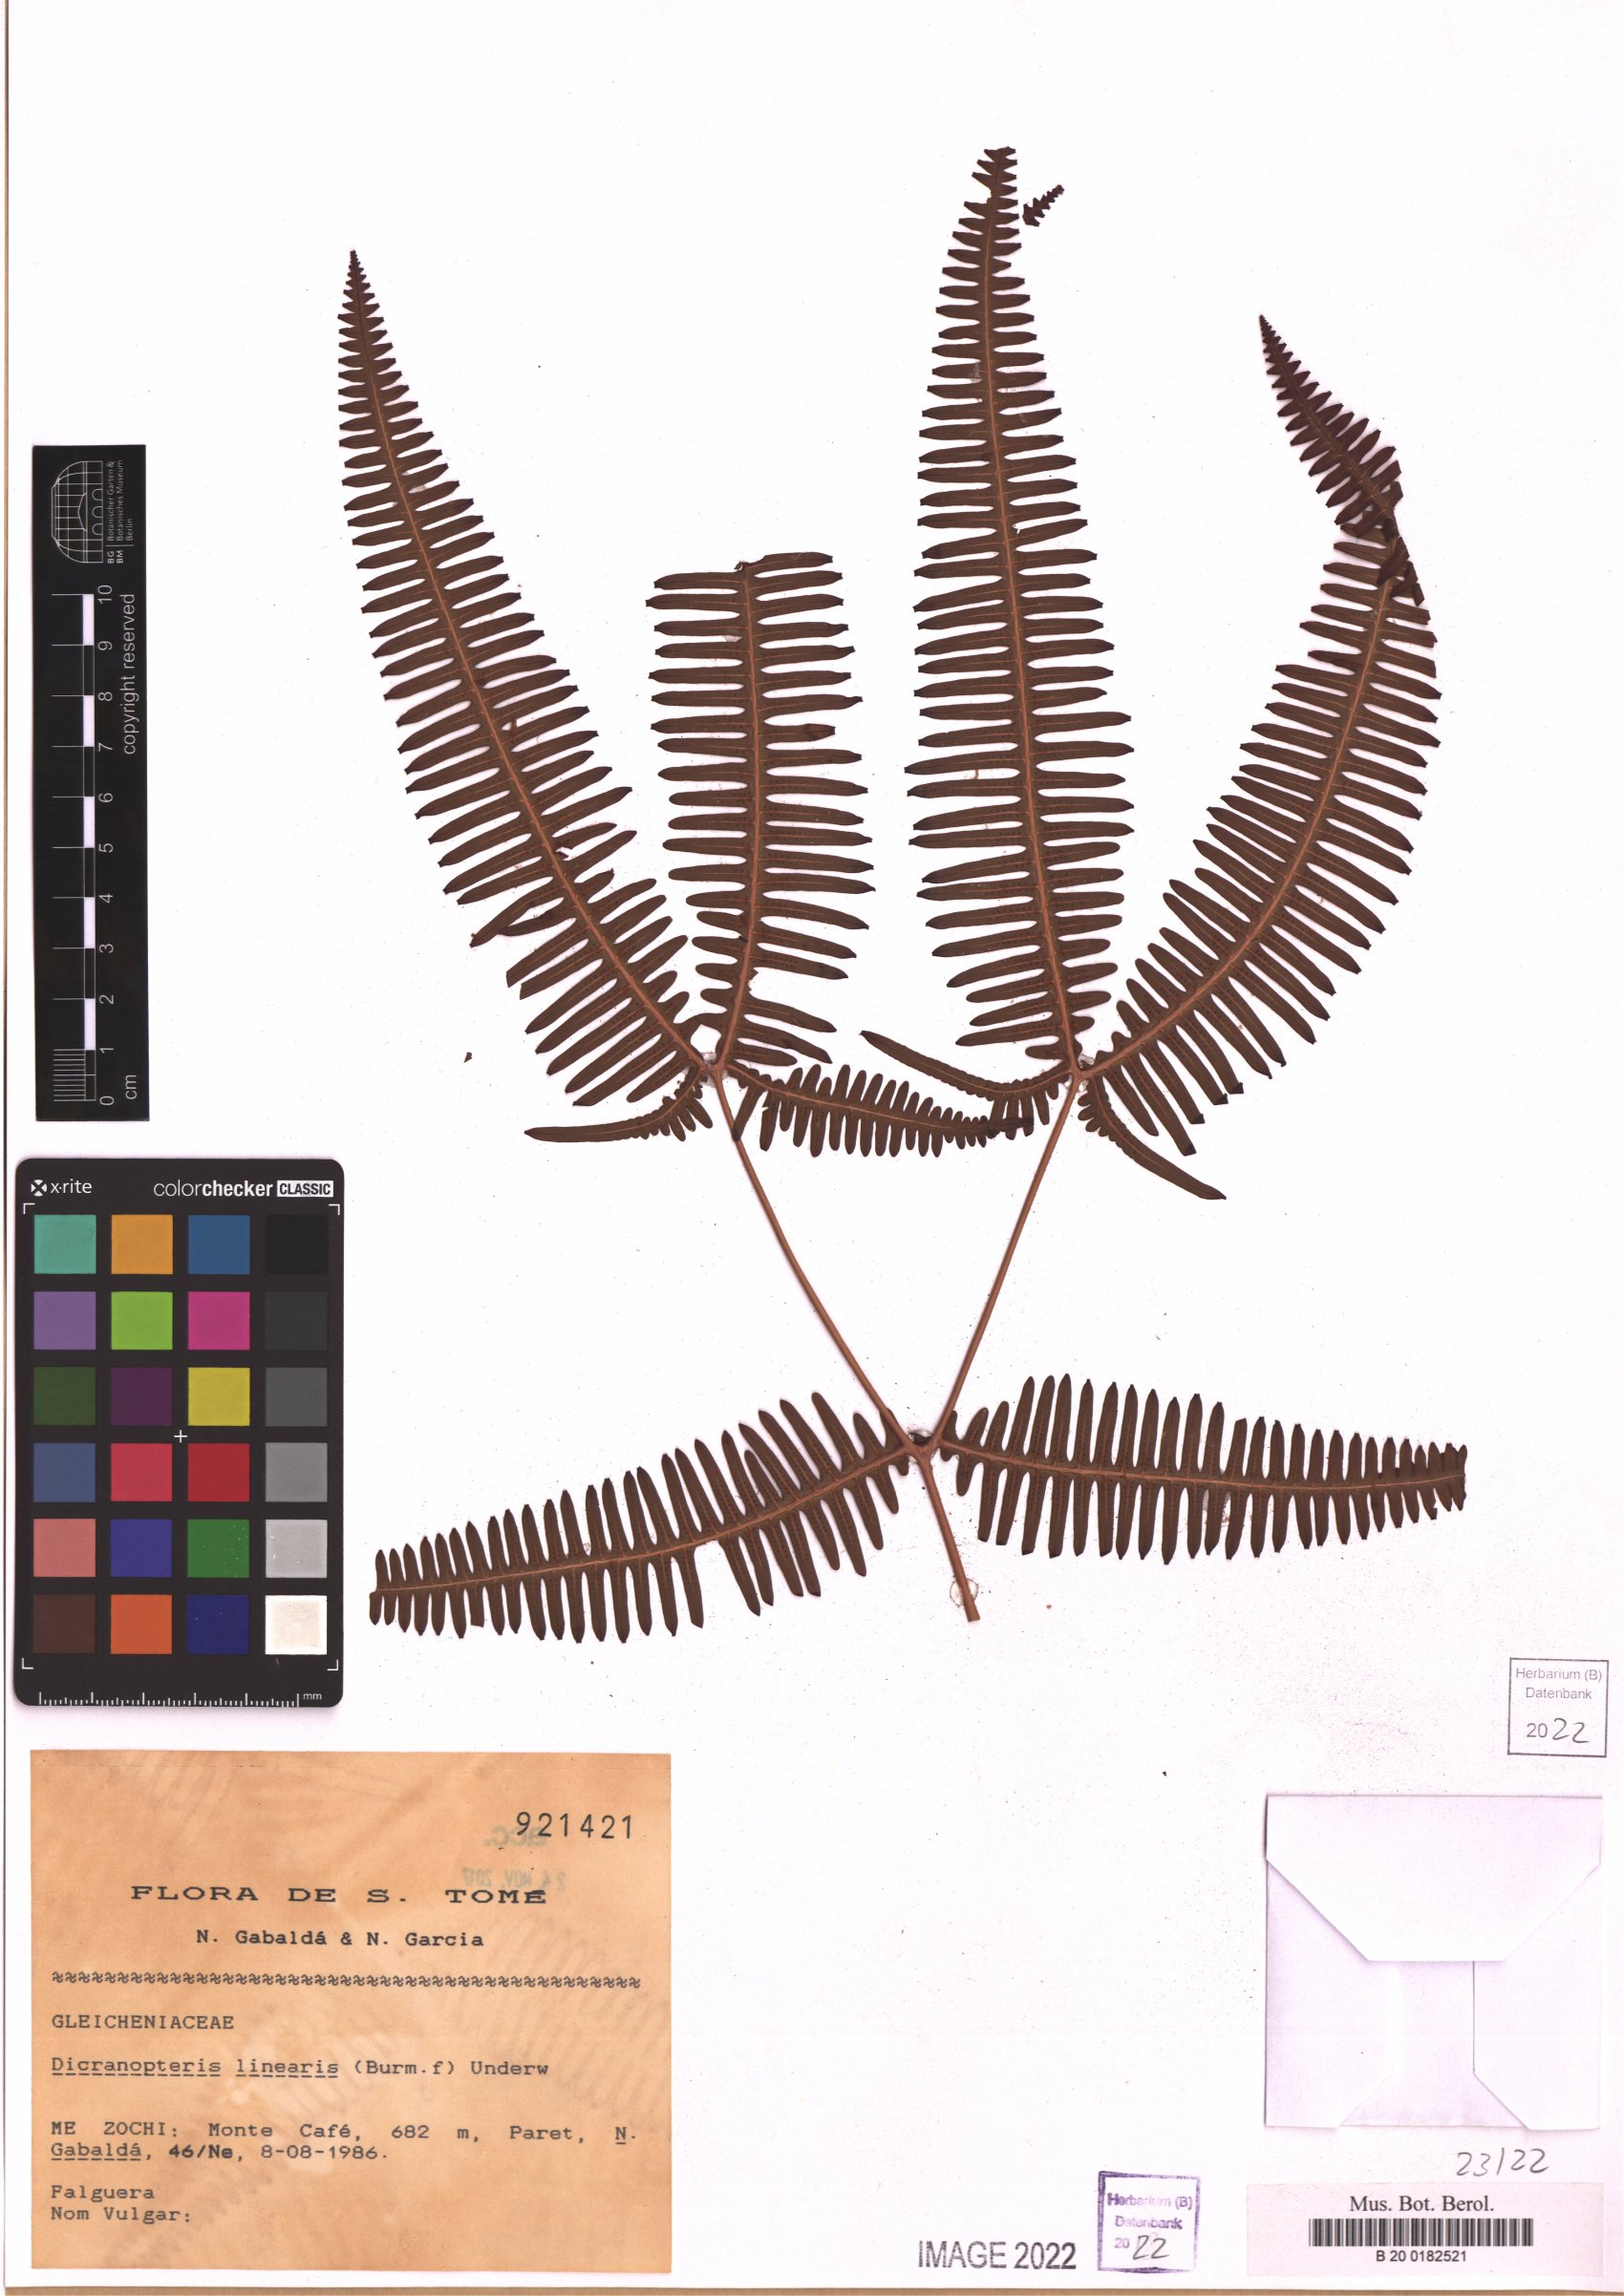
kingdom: Plantae
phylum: Tracheophyta
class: Polypodiopsida
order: Gleicheniales
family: Gleicheniaceae
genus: Dicranopteris
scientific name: Dicranopteris linearis
